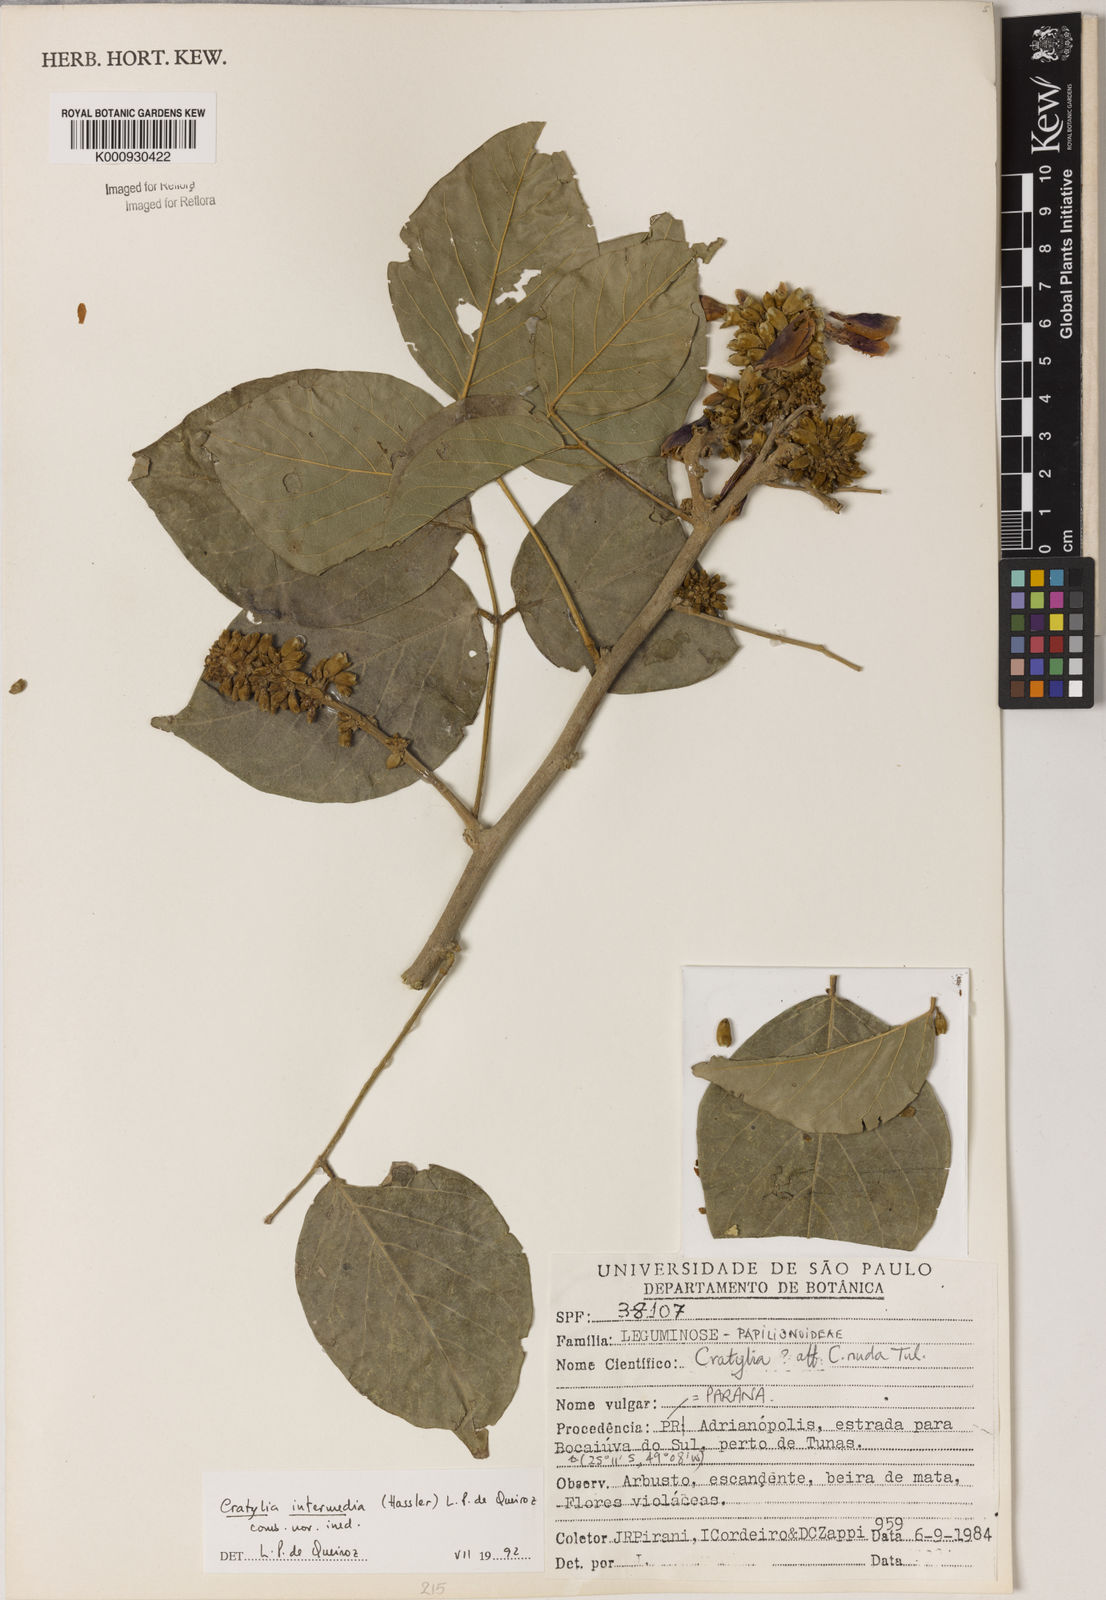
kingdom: Plantae
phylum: Tracheophyta
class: Magnoliopsida
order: Fabales
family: Fabaceae
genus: Cratylia
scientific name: Cratylia intermedia
